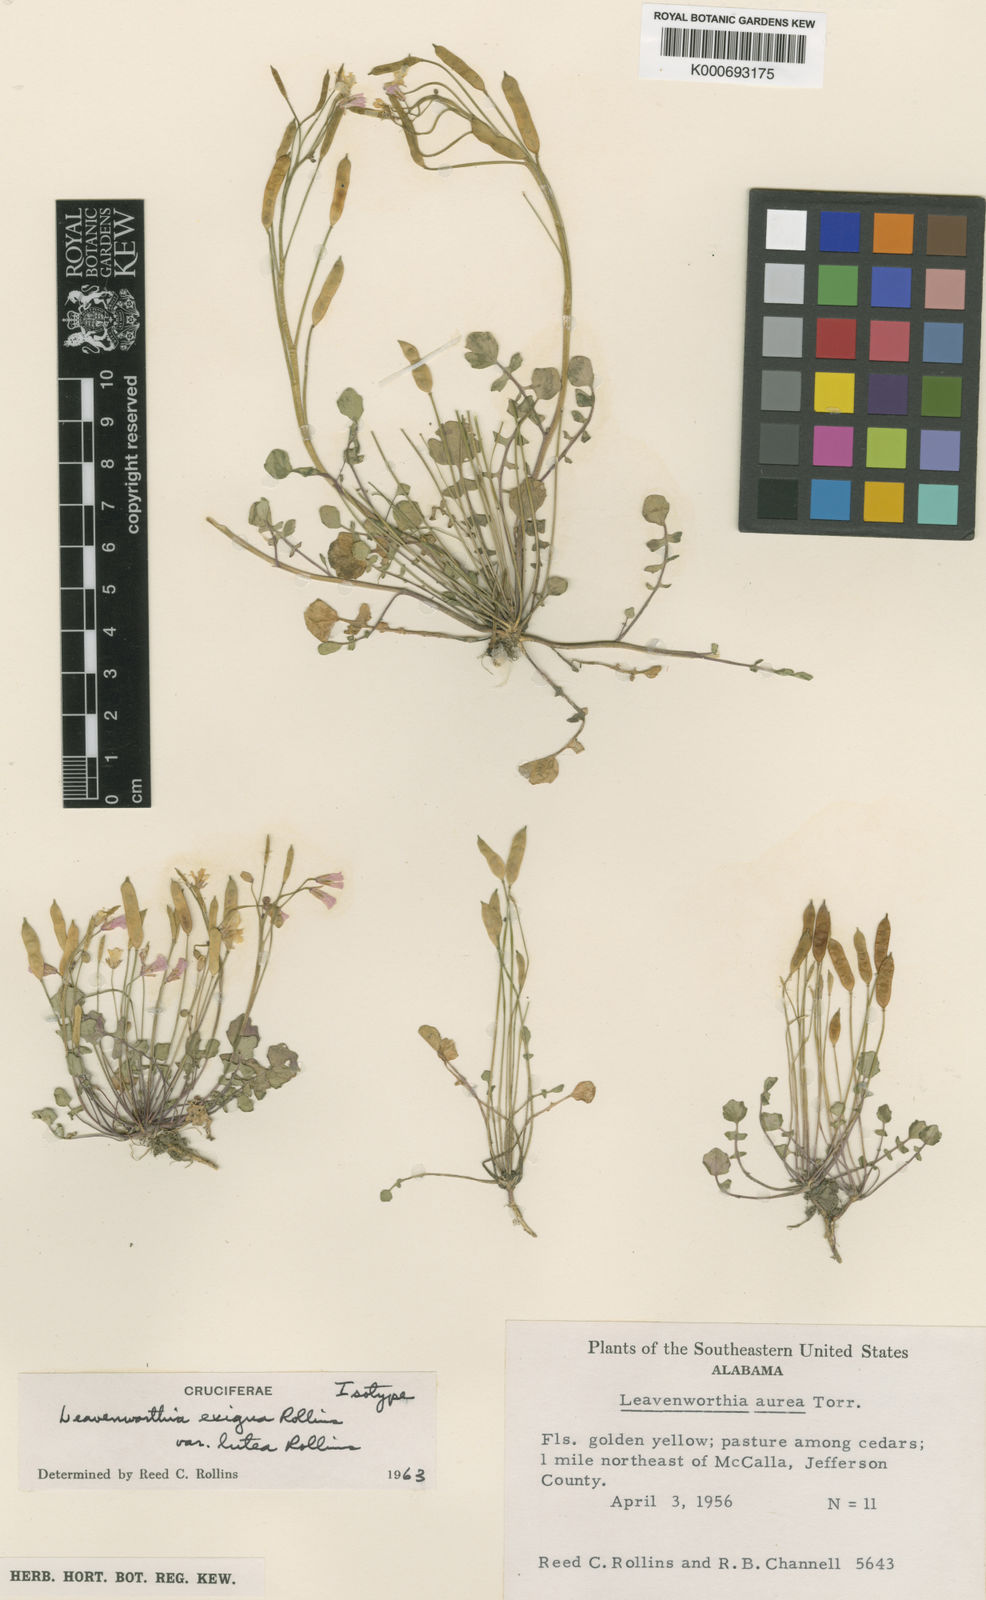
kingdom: Plantae
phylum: Tracheophyta
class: Magnoliopsida
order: Brassicales
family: Brassicaceae
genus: Leavenworthia
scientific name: Leavenworthia exigua
